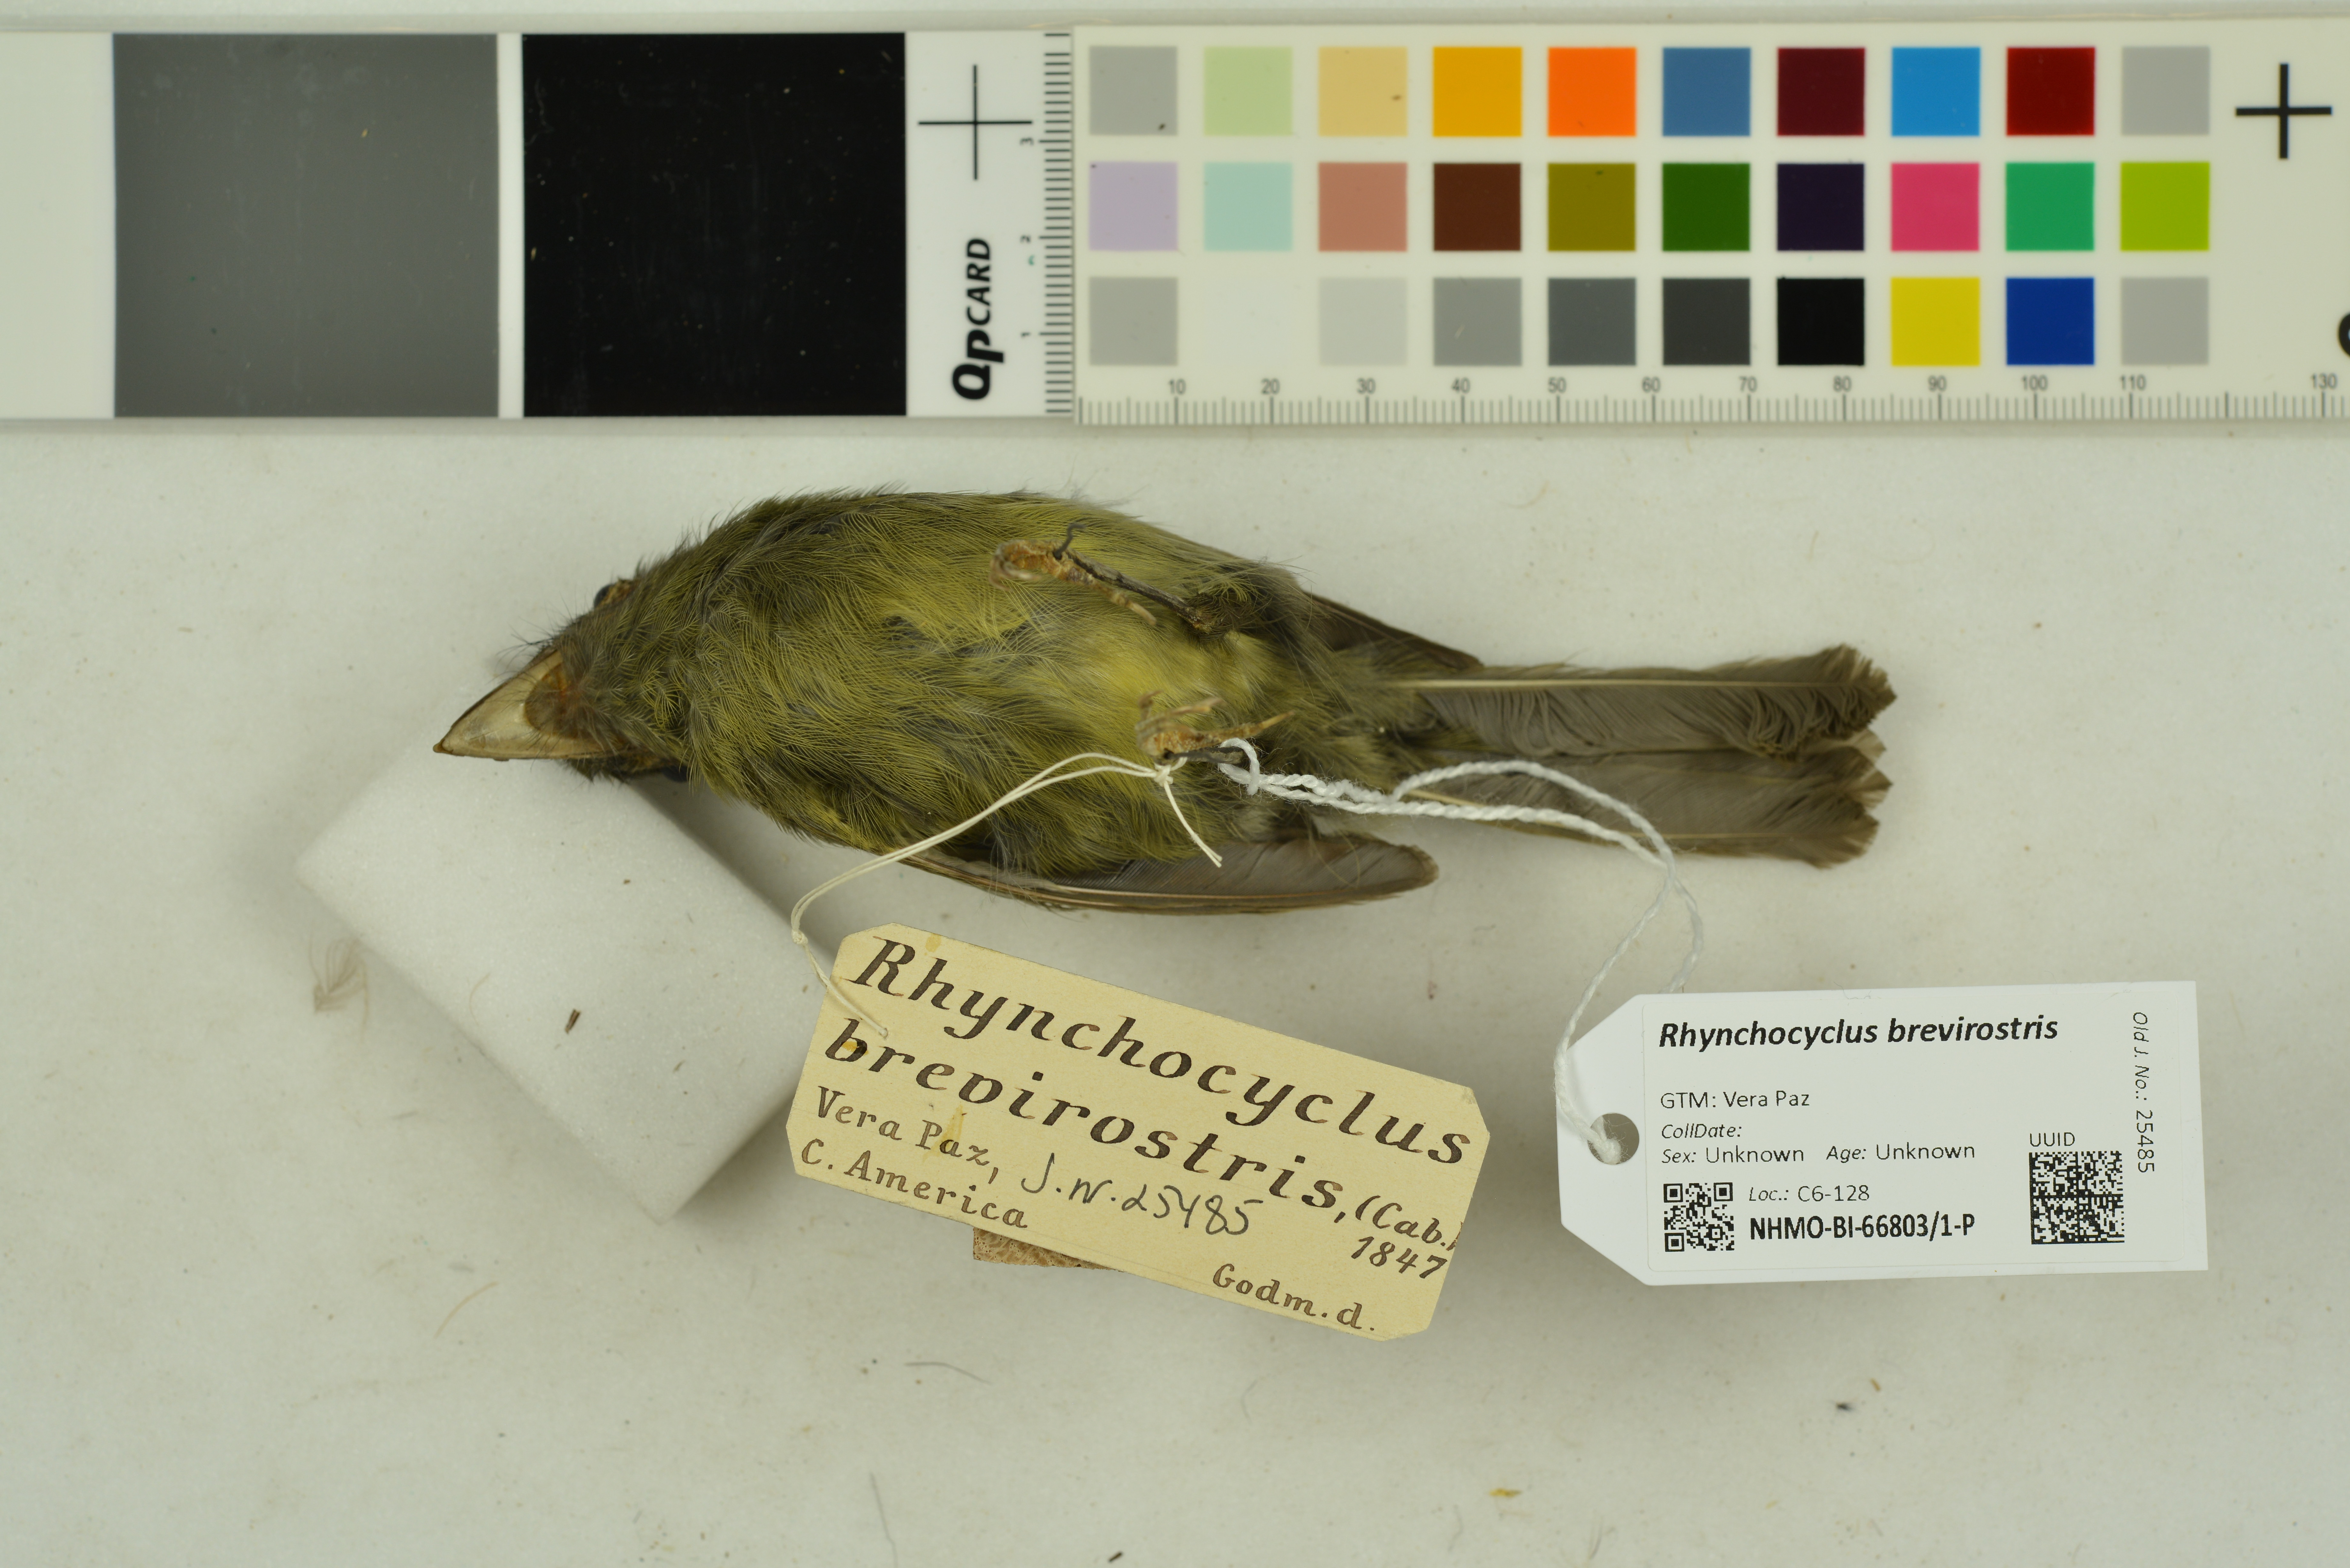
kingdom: Animalia
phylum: Chordata
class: Aves
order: Passeriformes
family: Tyrannidae
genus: Rhynchocyclus
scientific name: Rhynchocyclus brevirostris
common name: Eye-ringed flatbill
